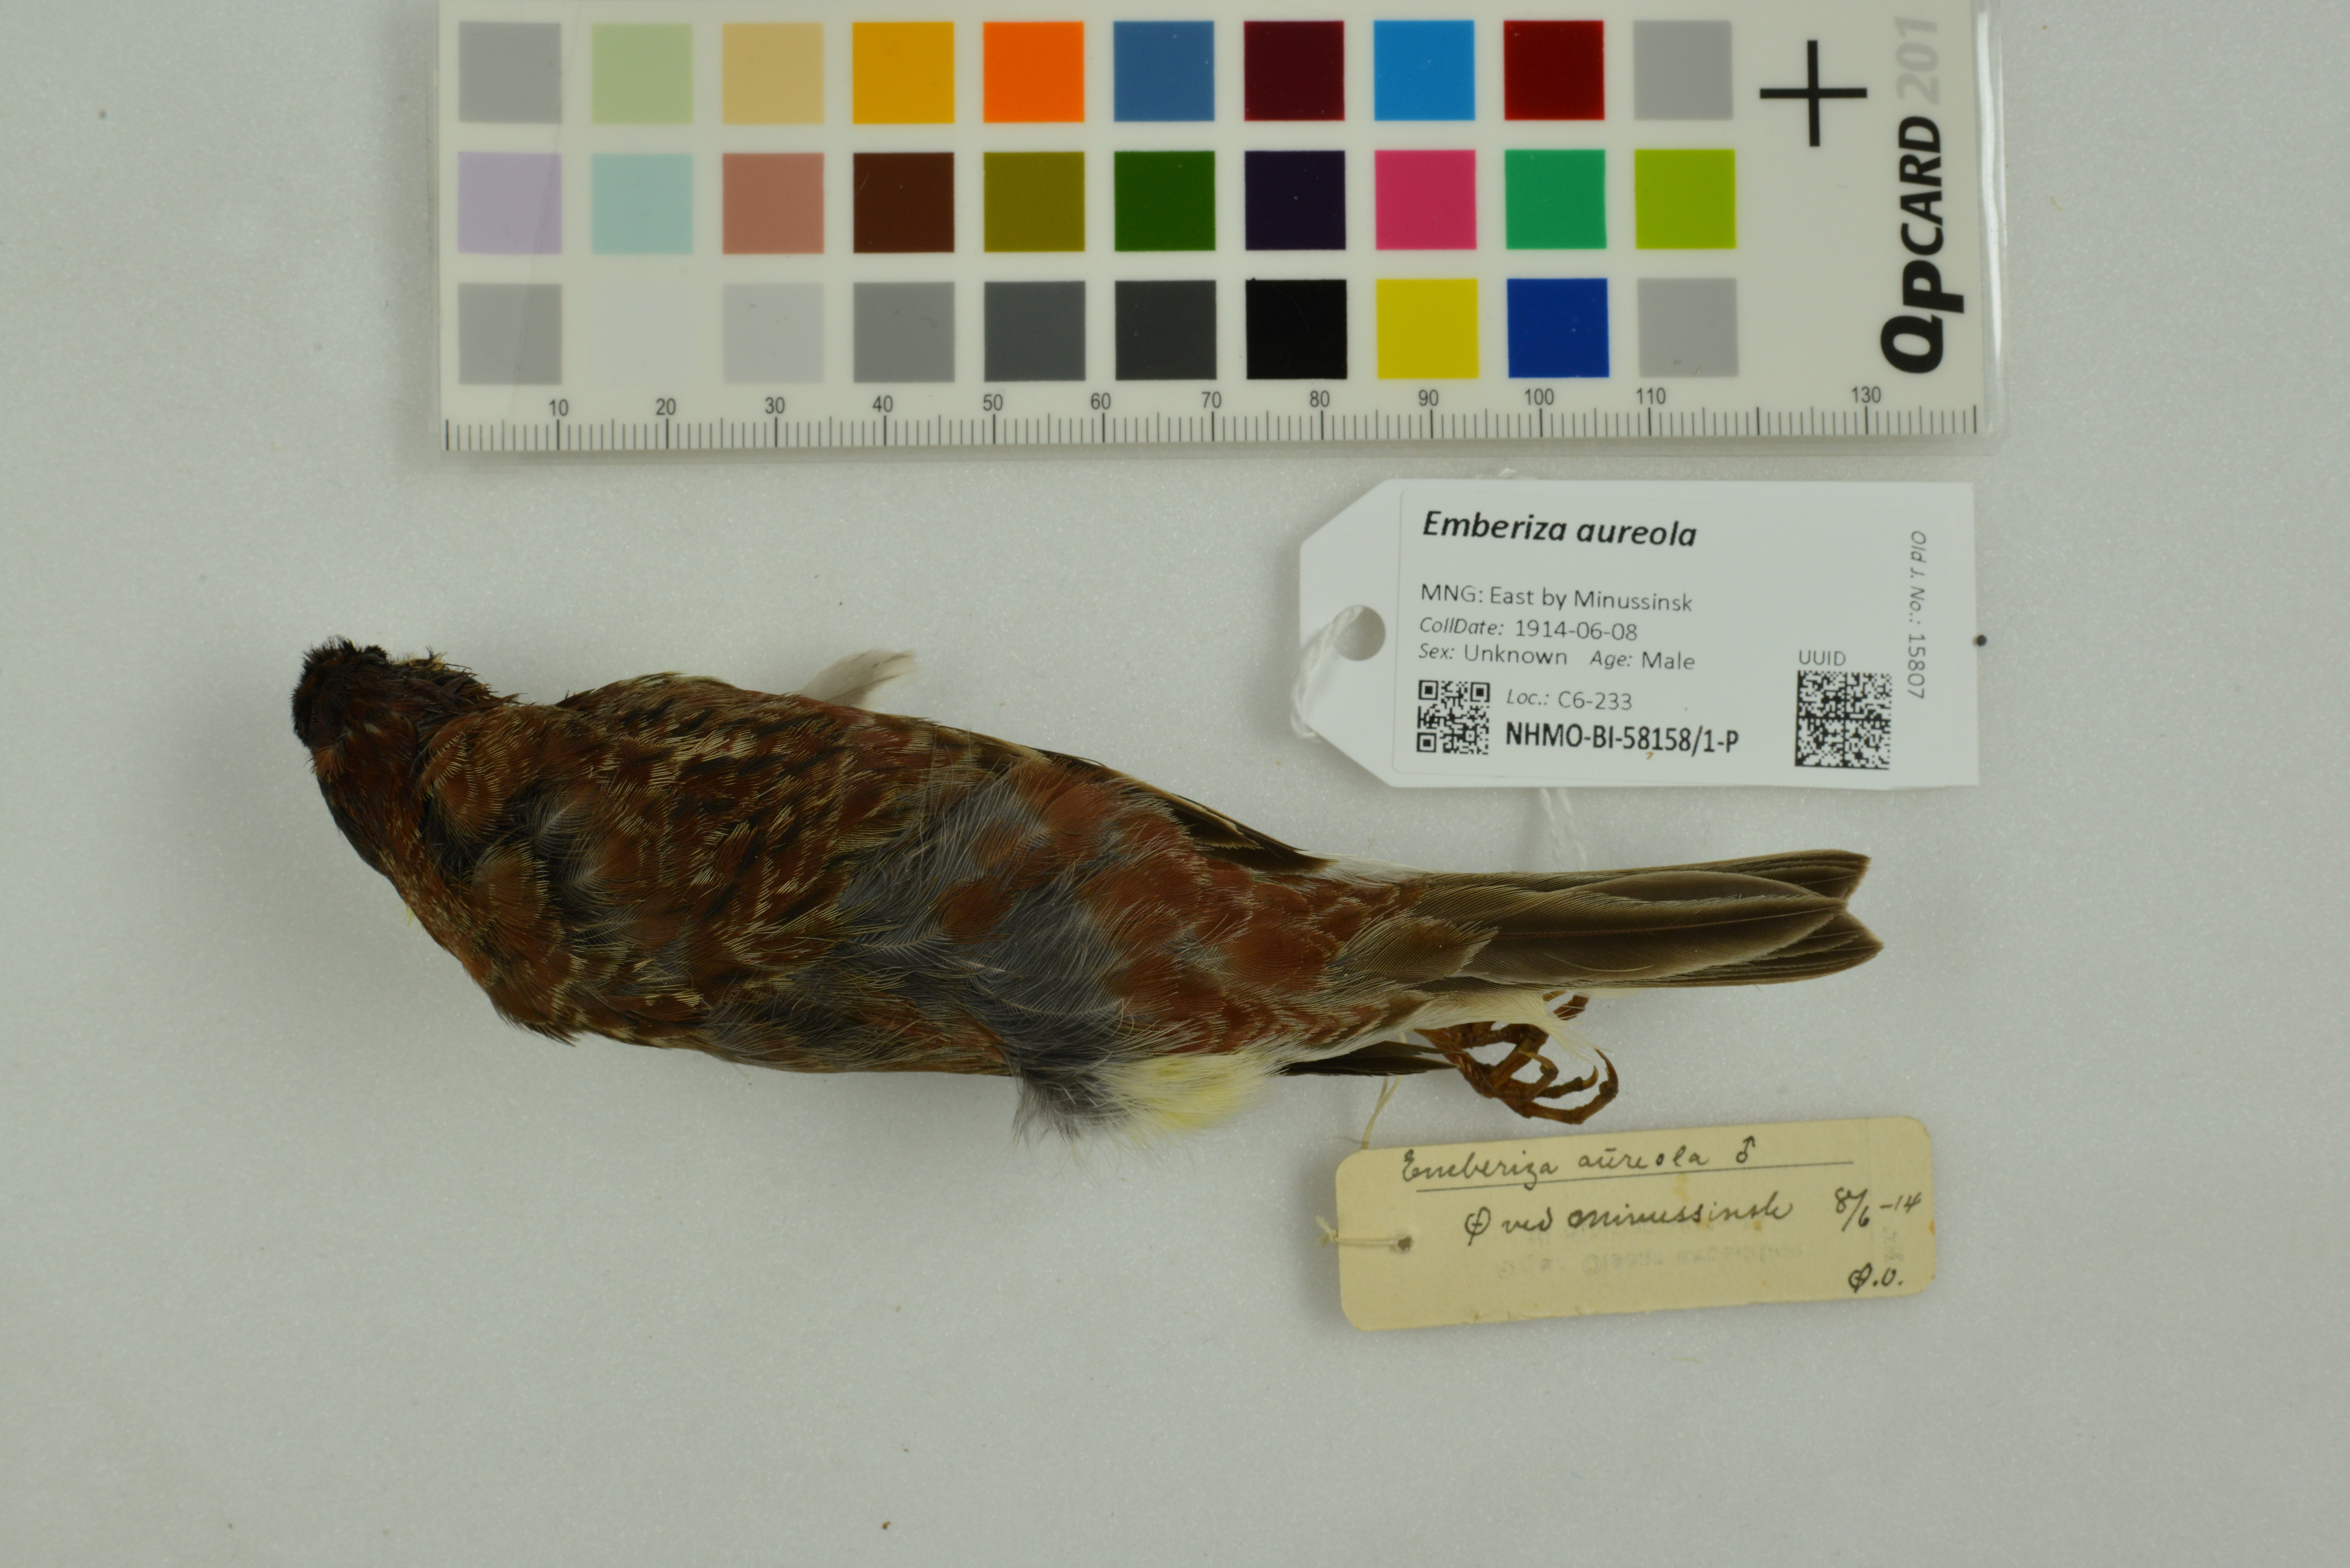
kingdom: Animalia
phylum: Chordata
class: Aves
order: Passeriformes
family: Emberizidae
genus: Emberiza
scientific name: Emberiza aureola
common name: Yellow-breasted bunting
